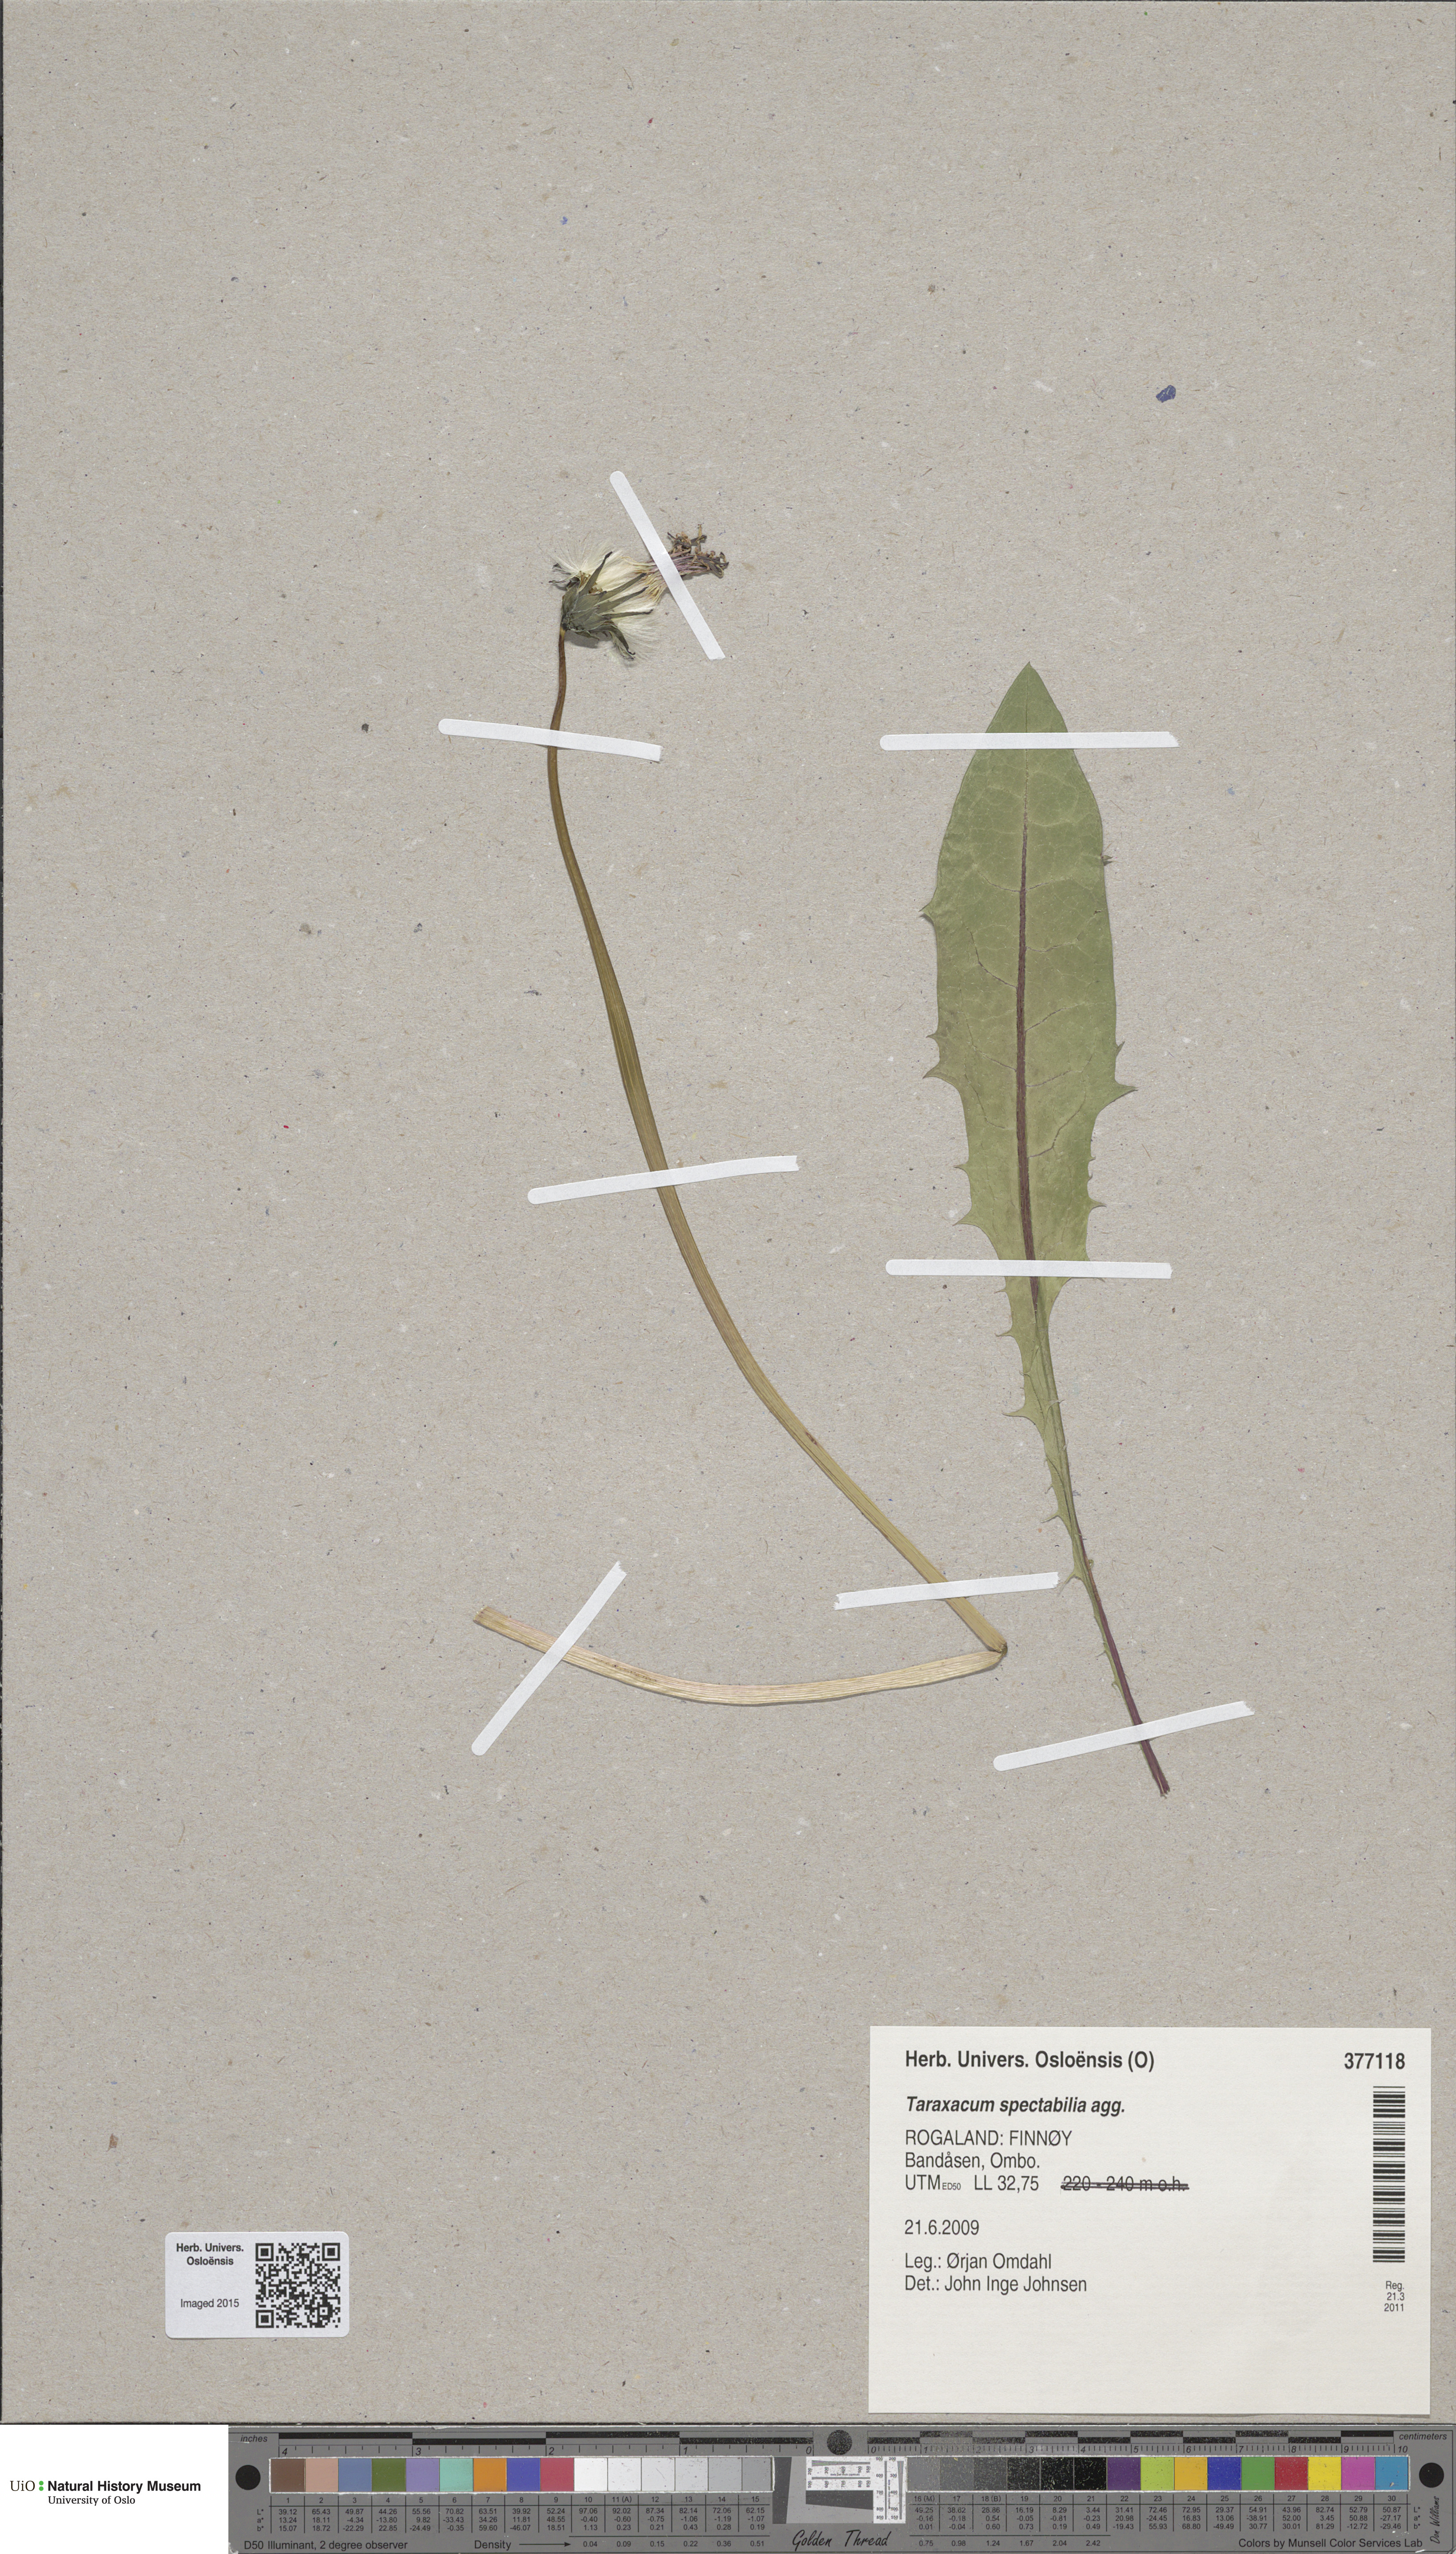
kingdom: Plantae
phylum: Tracheophyta
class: Magnoliopsida
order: Asterales
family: Asteraceae
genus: Taraxacum
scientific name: Taraxacum
